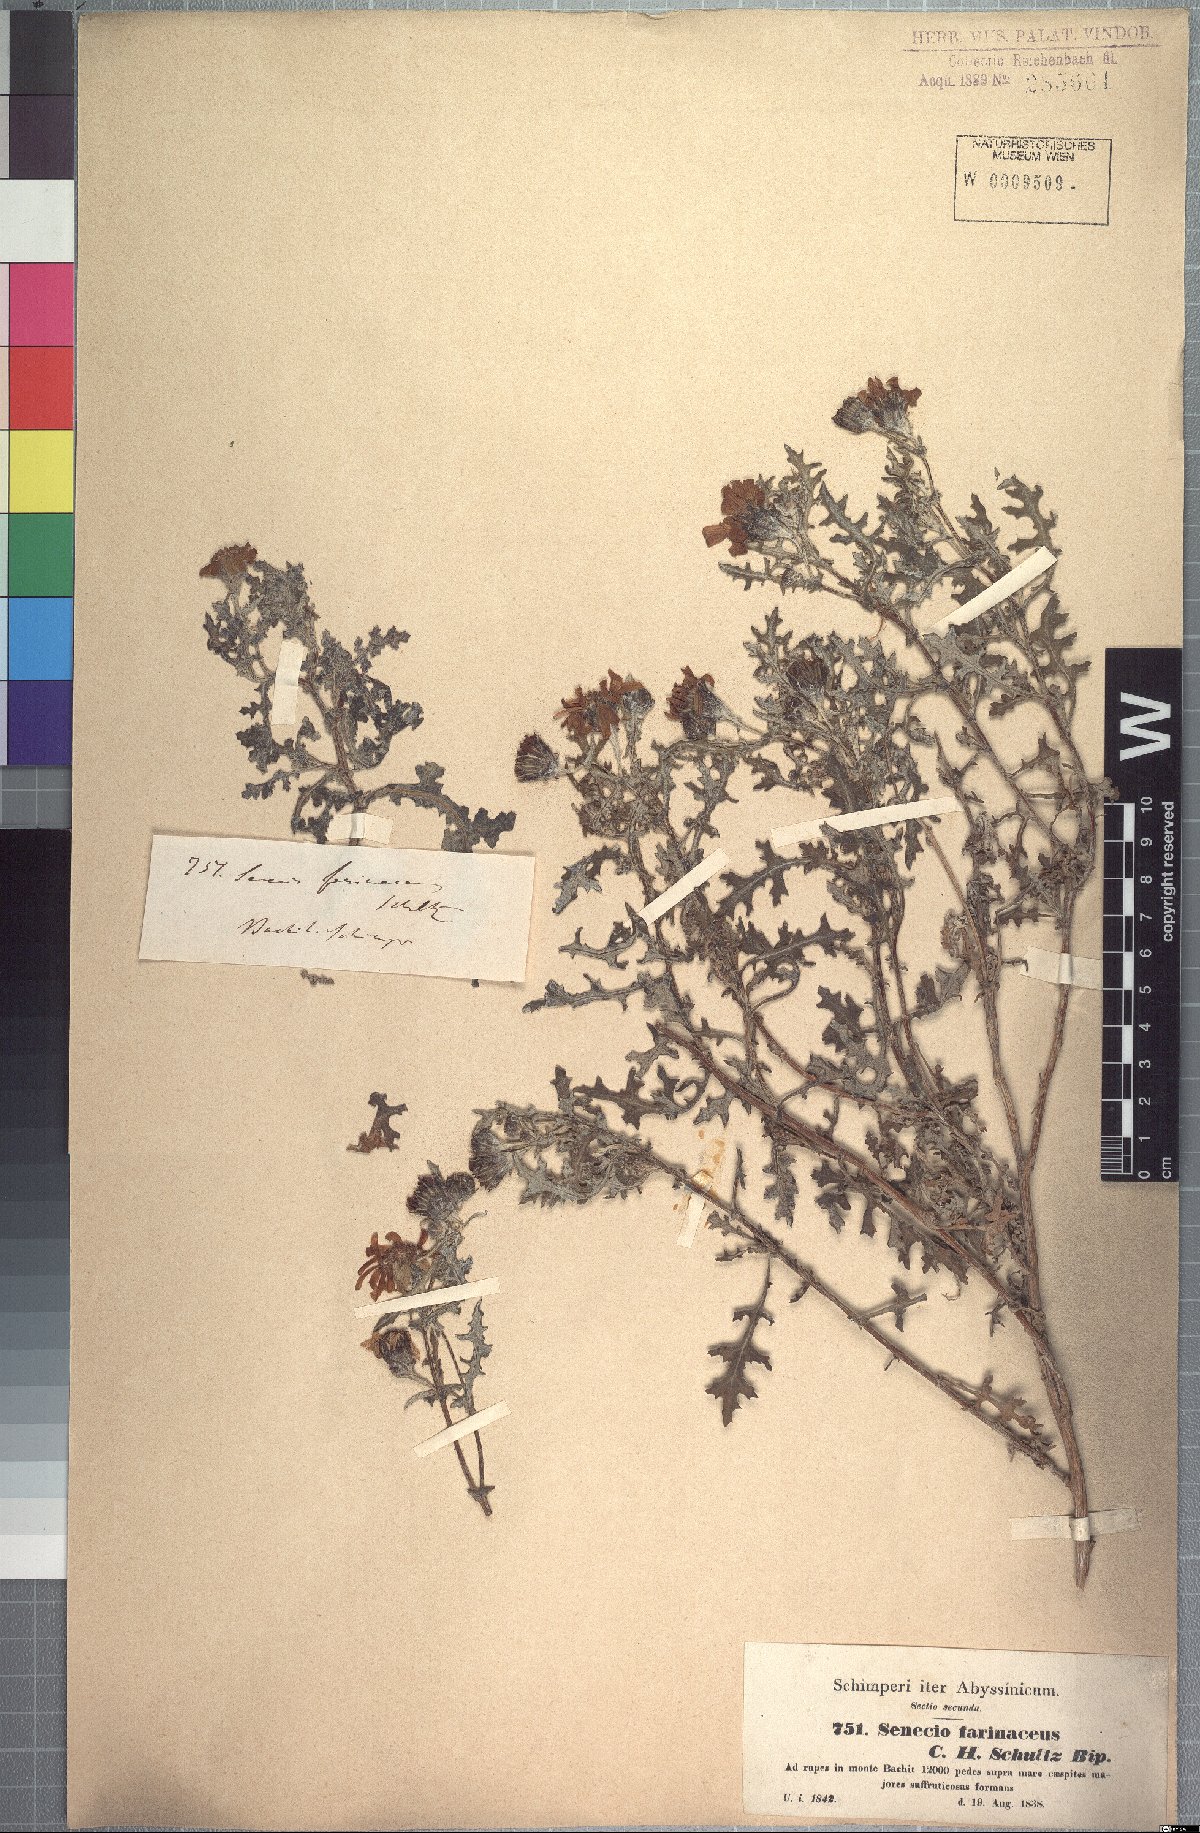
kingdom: Plantae
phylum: Tracheophyta
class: Magnoliopsida
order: Asterales
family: Asteraceae
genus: Senecio
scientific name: Senecio farinaceus
